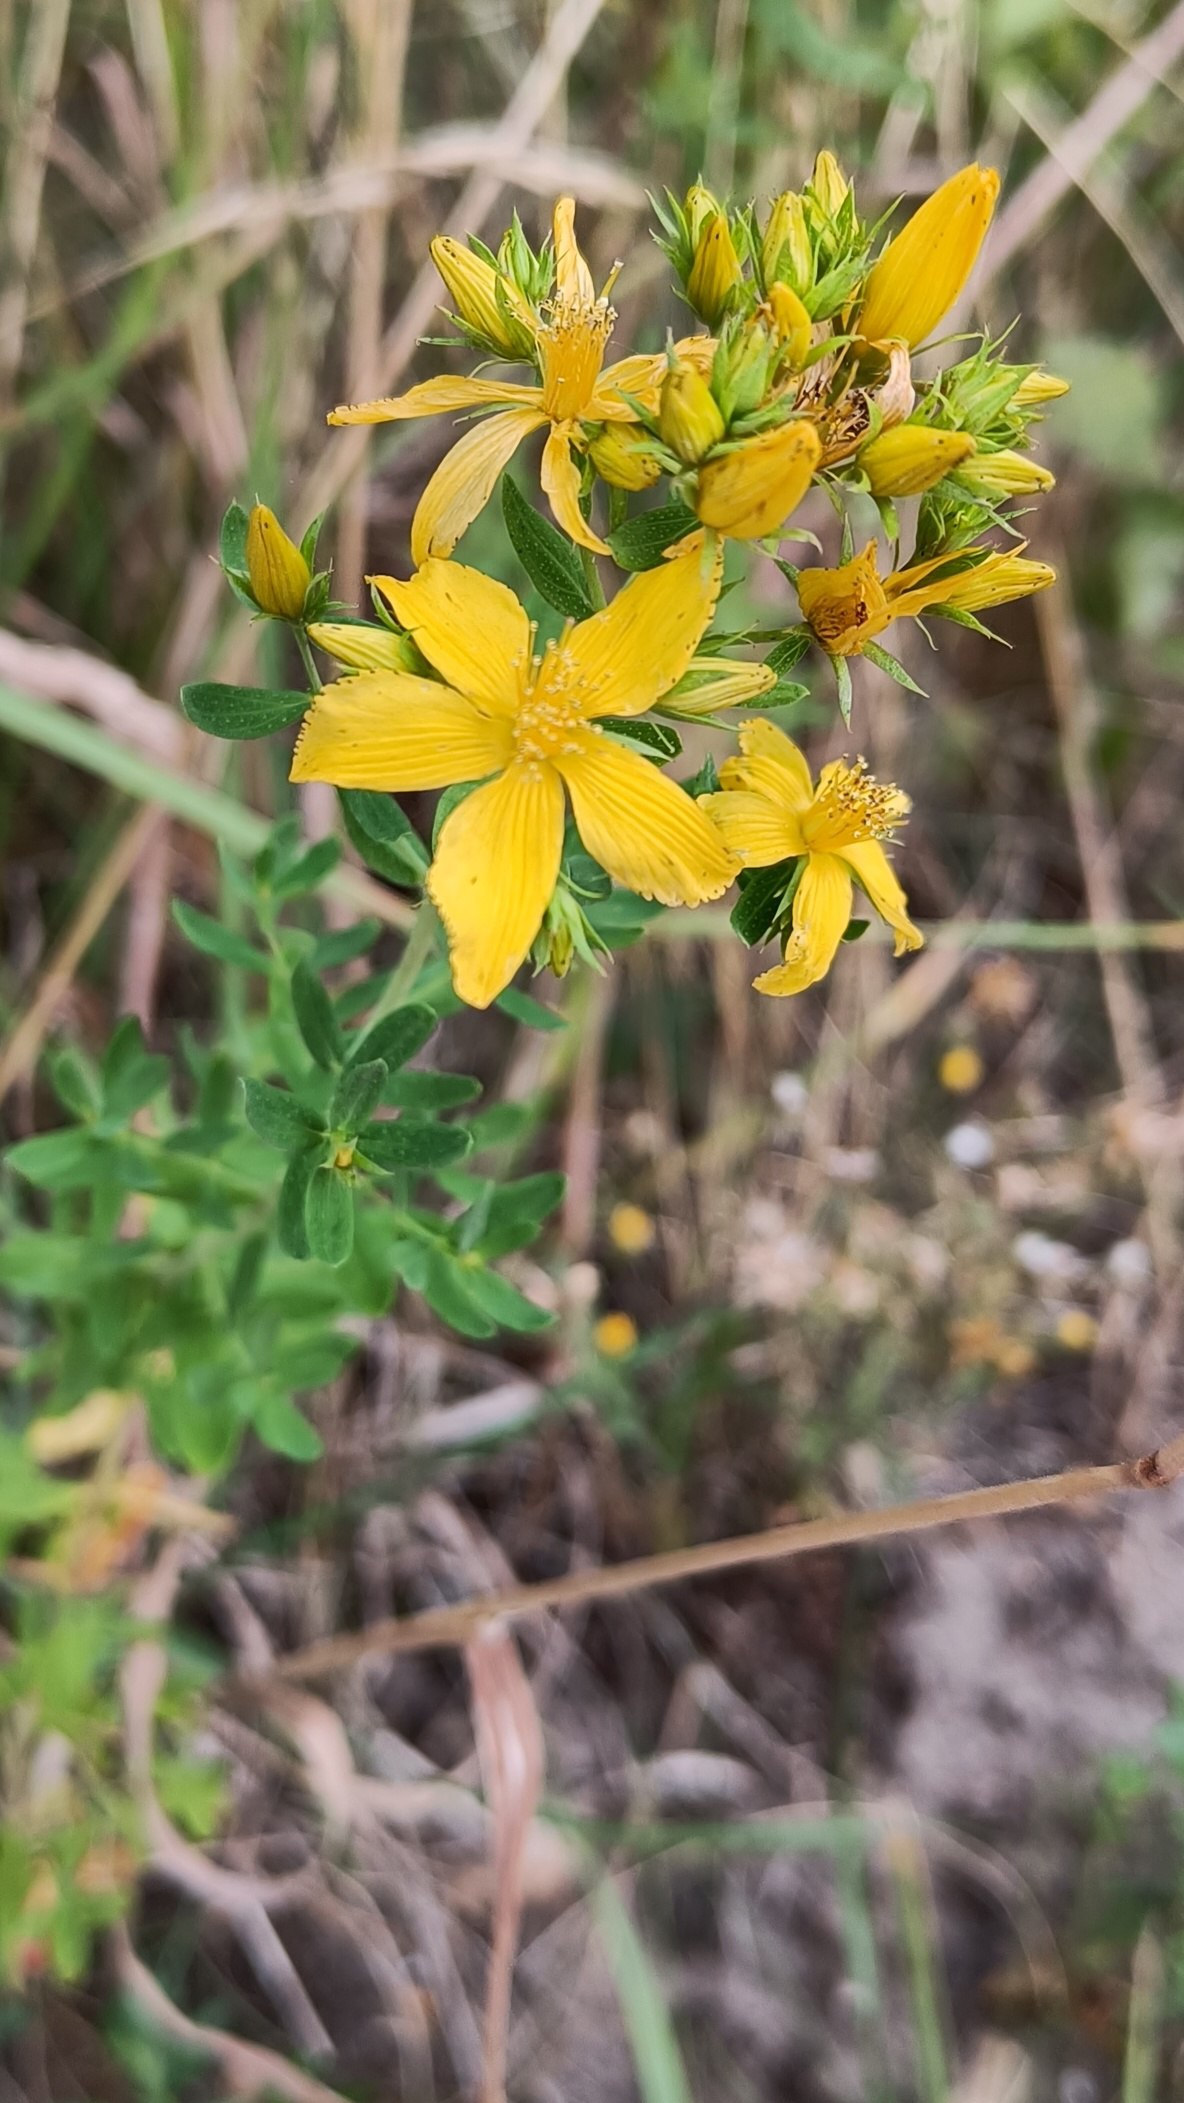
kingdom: Plantae
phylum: Tracheophyta
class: Magnoliopsida
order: Malpighiales
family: Hypericaceae
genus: Hypericum
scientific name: Hypericum perforatum
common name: Prikbladet perikon
